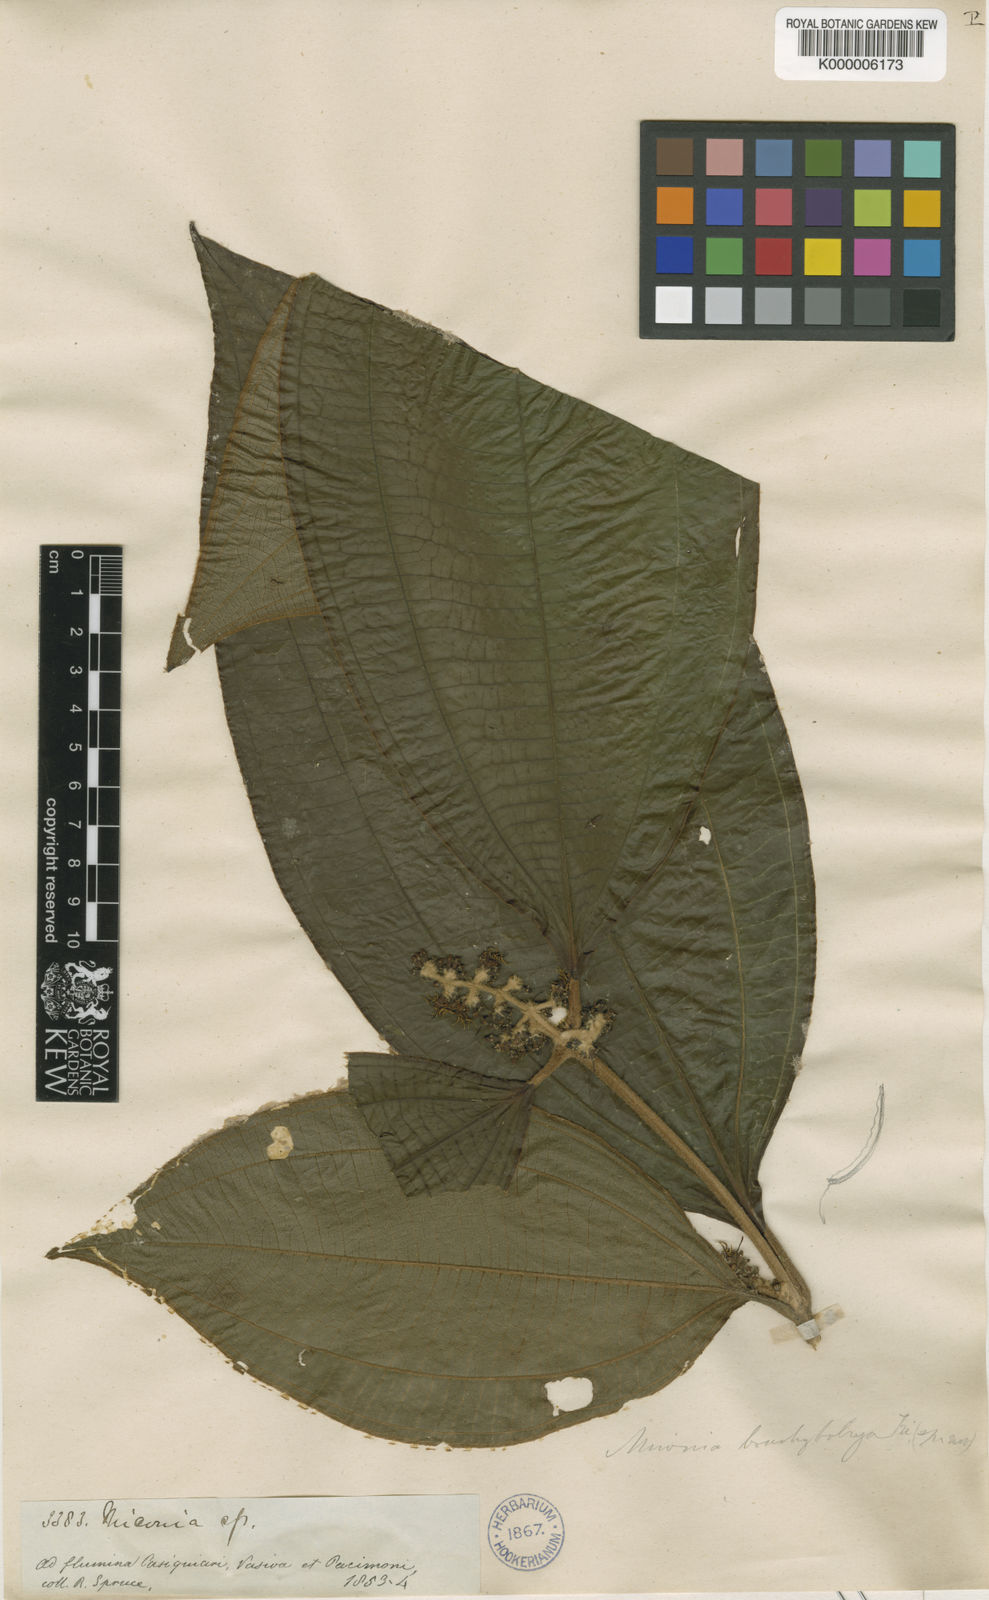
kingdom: Plantae
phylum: Tracheophyta
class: Magnoliopsida
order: Myrtales
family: Melastomataceae
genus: Miconia
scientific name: Miconia brachybotrya
